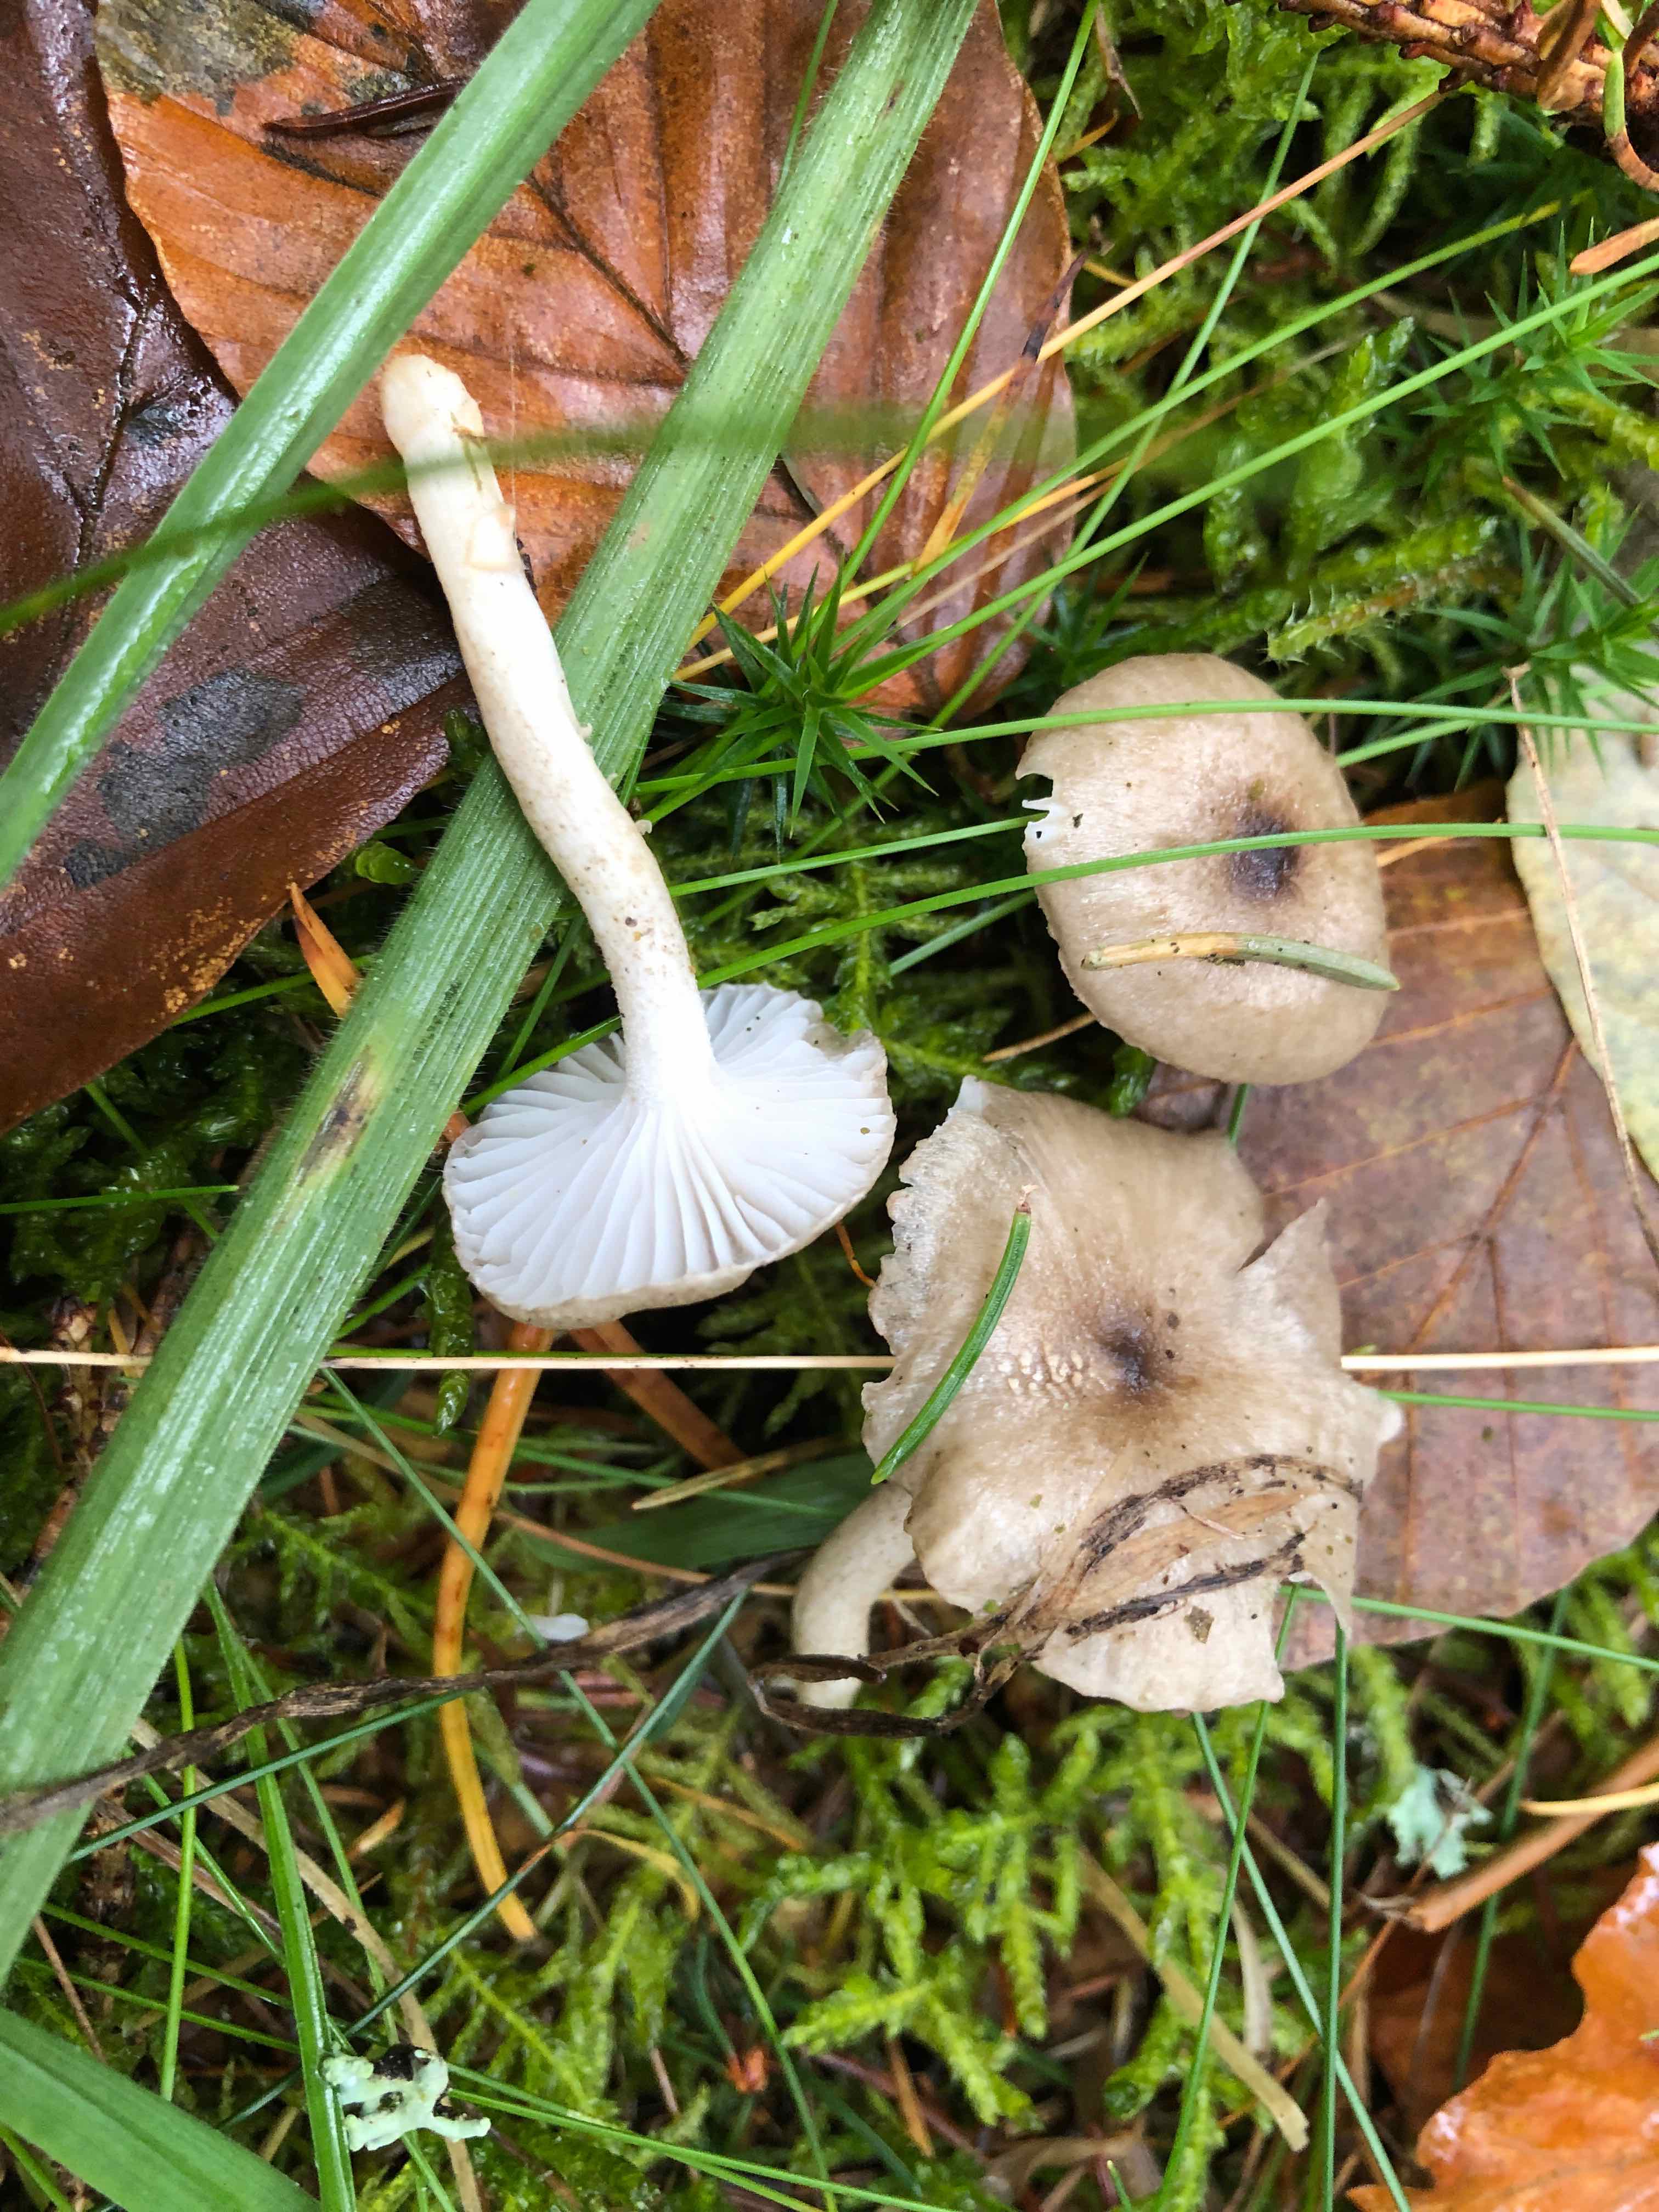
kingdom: Fungi
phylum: Basidiomycota
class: Agaricomycetes
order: Agaricales
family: Hygrophoraceae
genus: Hygrophorus
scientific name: Hygrophorus pustulatus
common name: mørkprikket sneglehat
